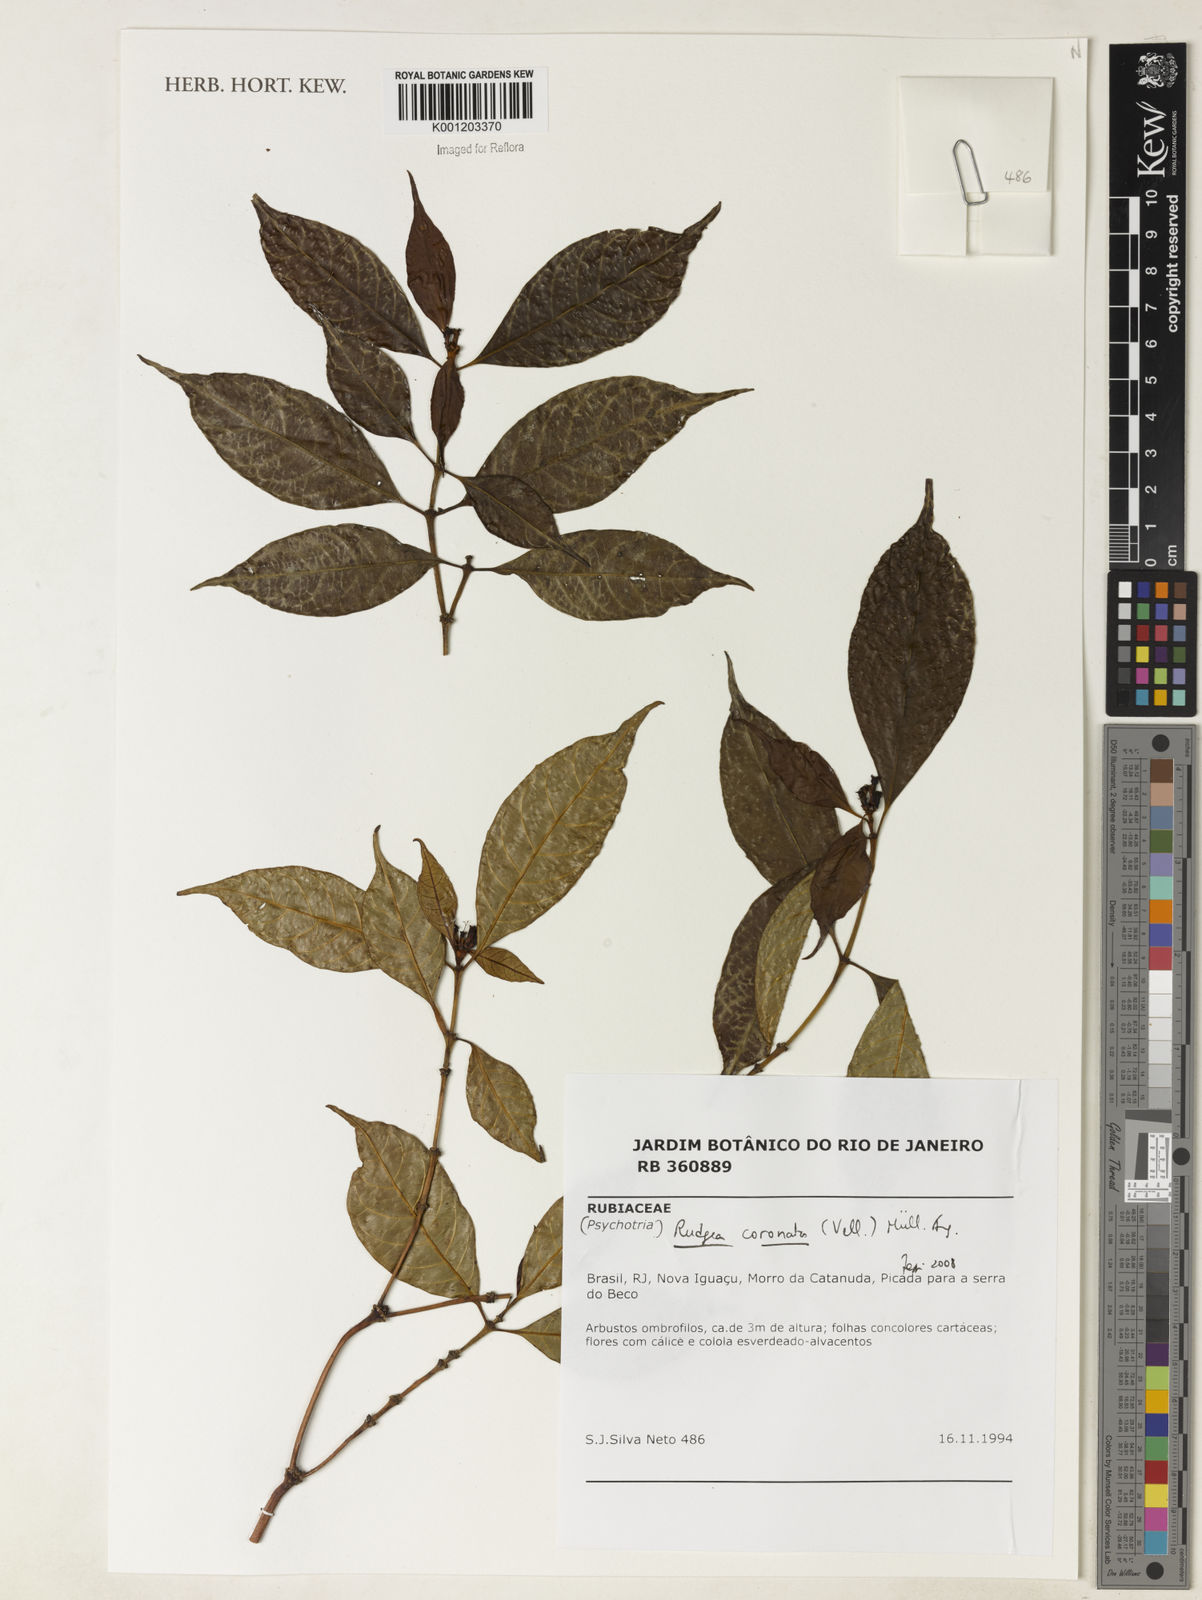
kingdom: Plantae
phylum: Tracheophyta
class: Magnoliopsida
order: Gentianales
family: Rubiaceae
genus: Rudgea
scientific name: Rudgea
